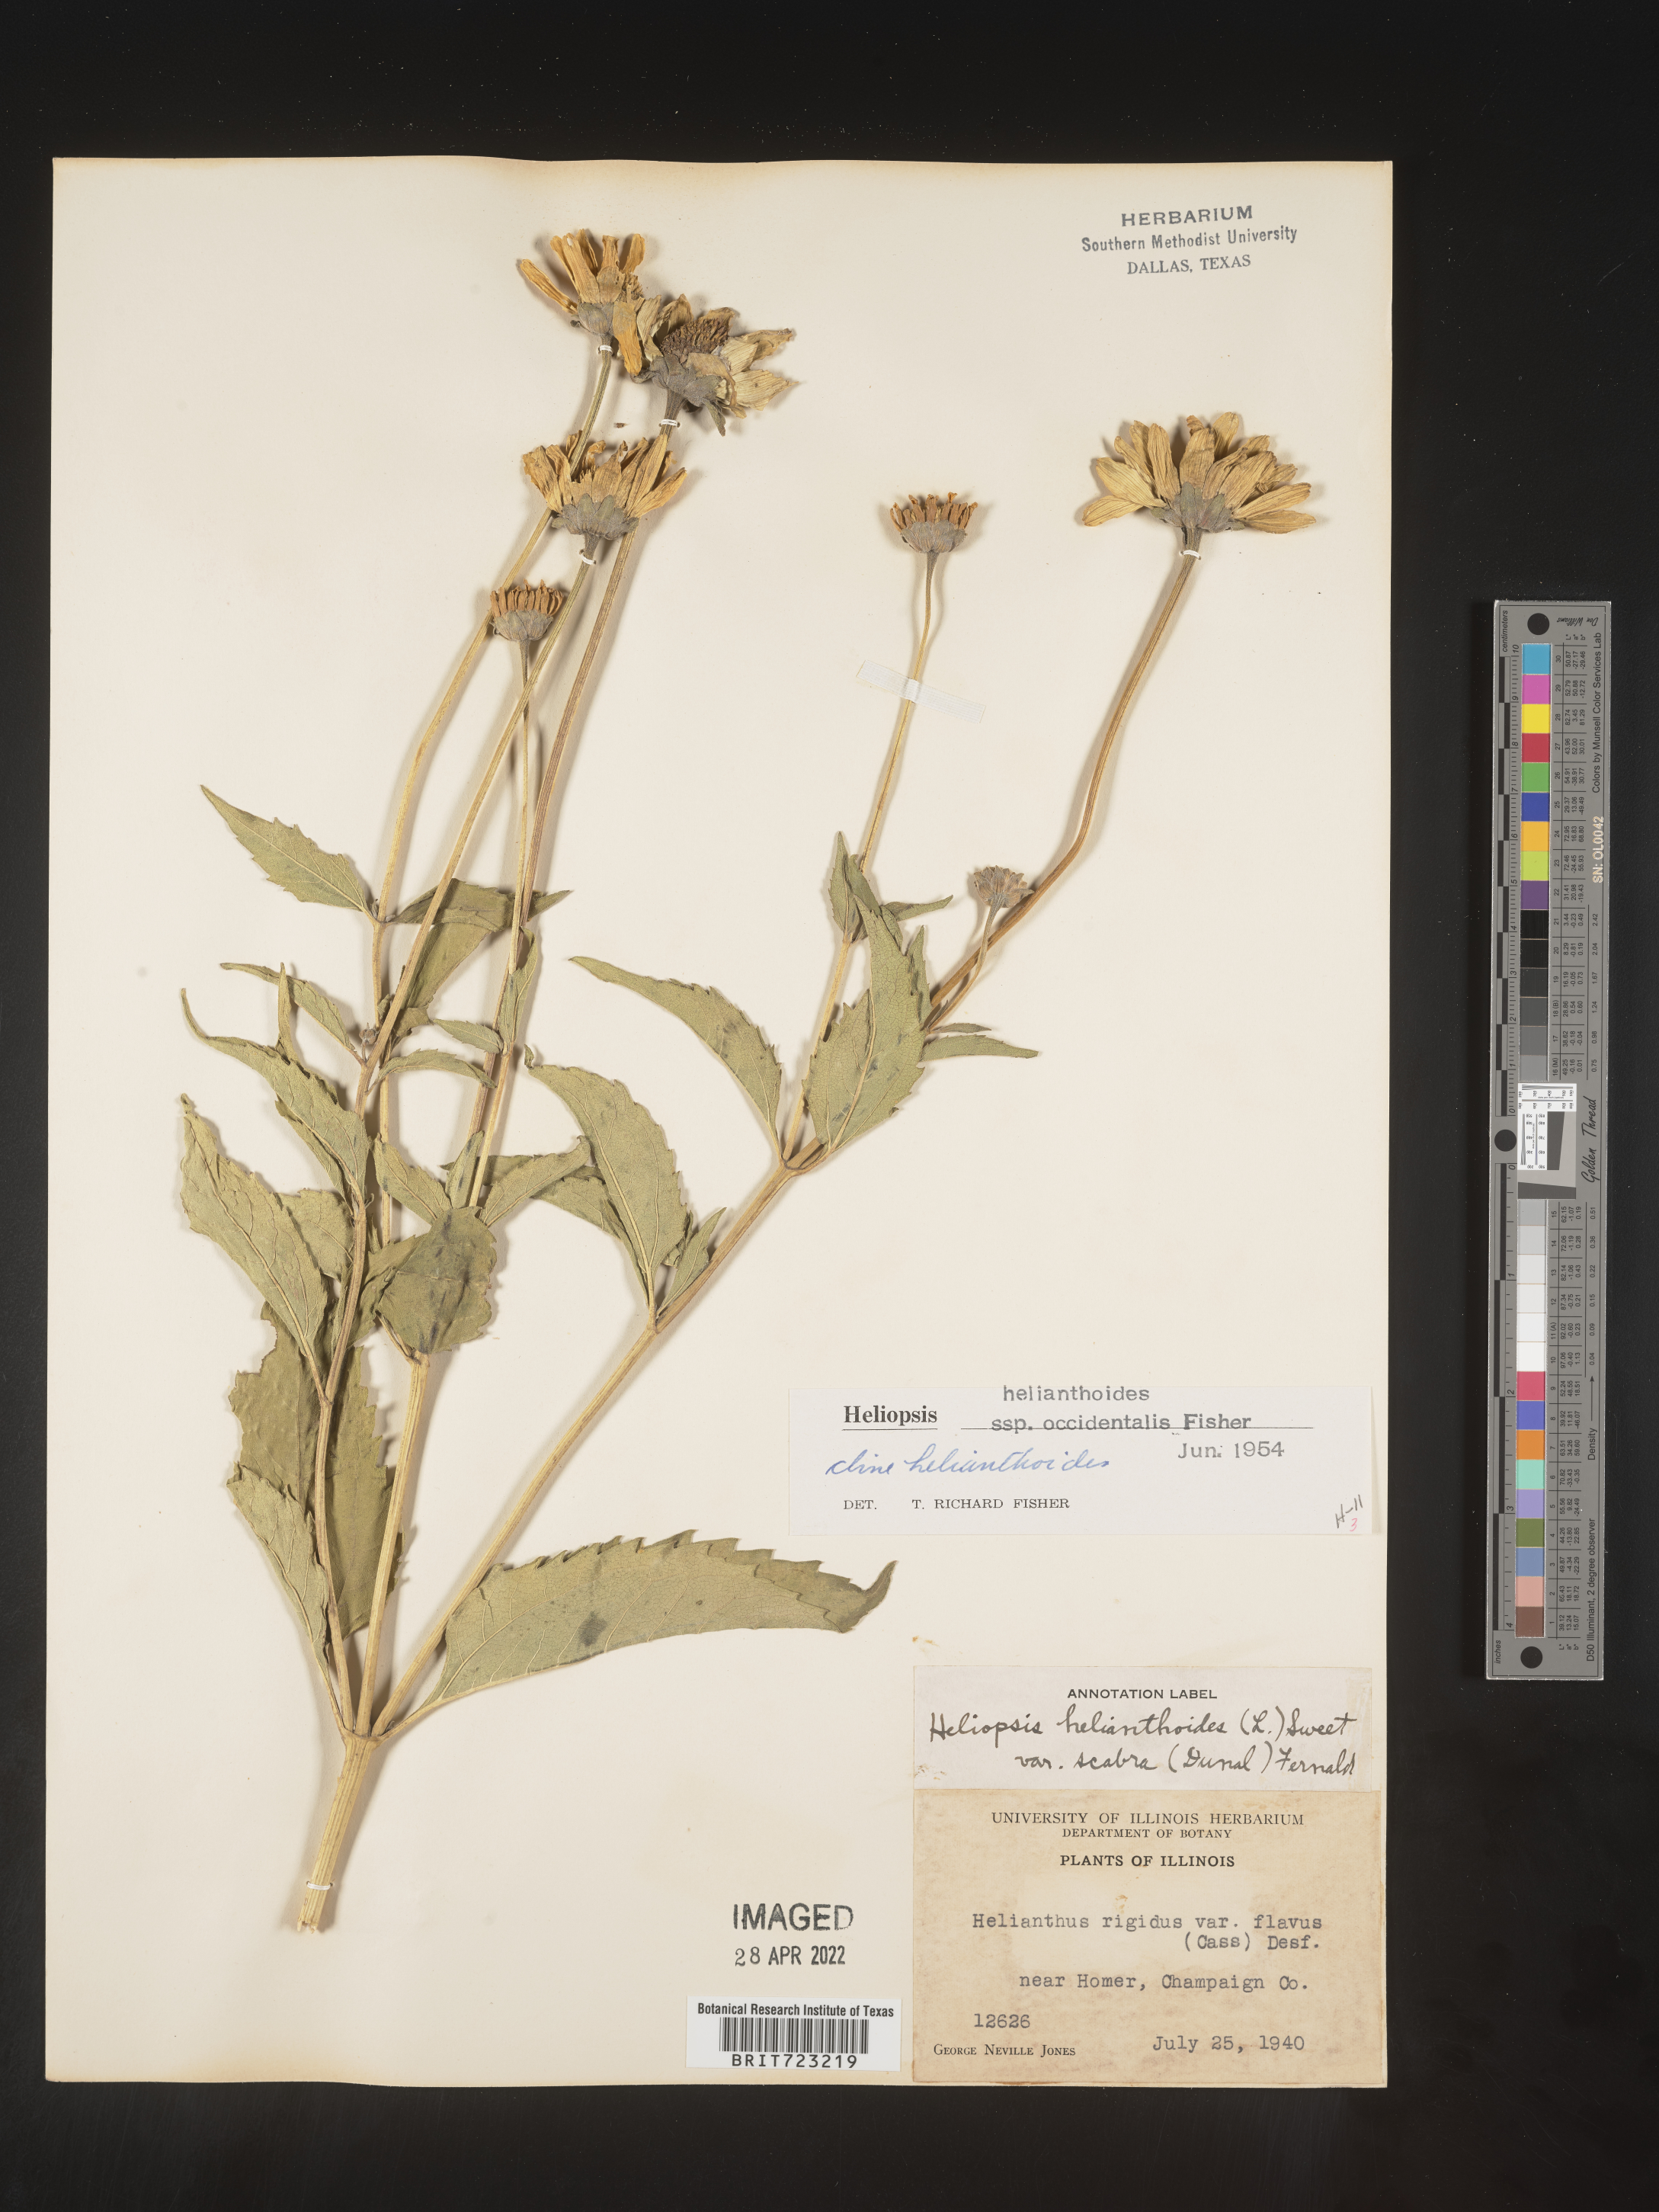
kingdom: Plantae
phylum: Tracheophyta
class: Magnoliopsida
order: Asterales
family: Asteraceae
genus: Heliopsis
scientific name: Heliopsis helianthoides
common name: False sunflower
